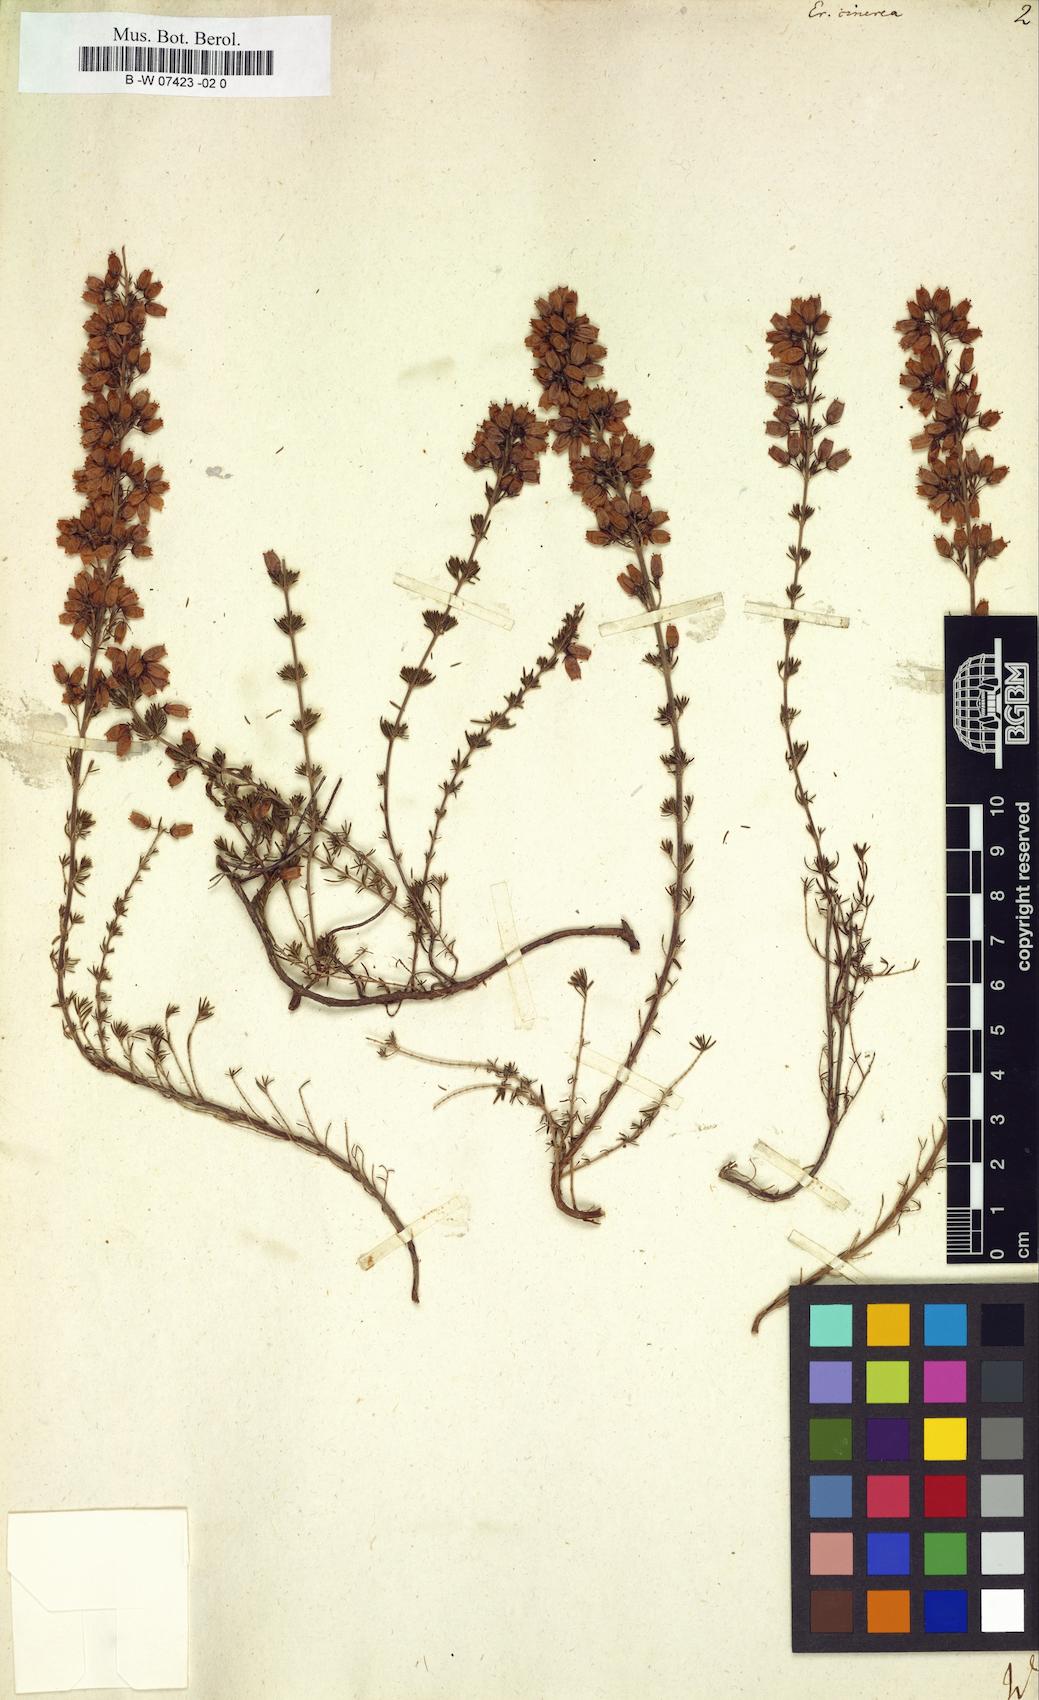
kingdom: Plantae
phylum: Tracheophyta
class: Magnoliopsida
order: Ericales
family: Ericaceae
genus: Erica
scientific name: Erica cinerea
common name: Bell heather
